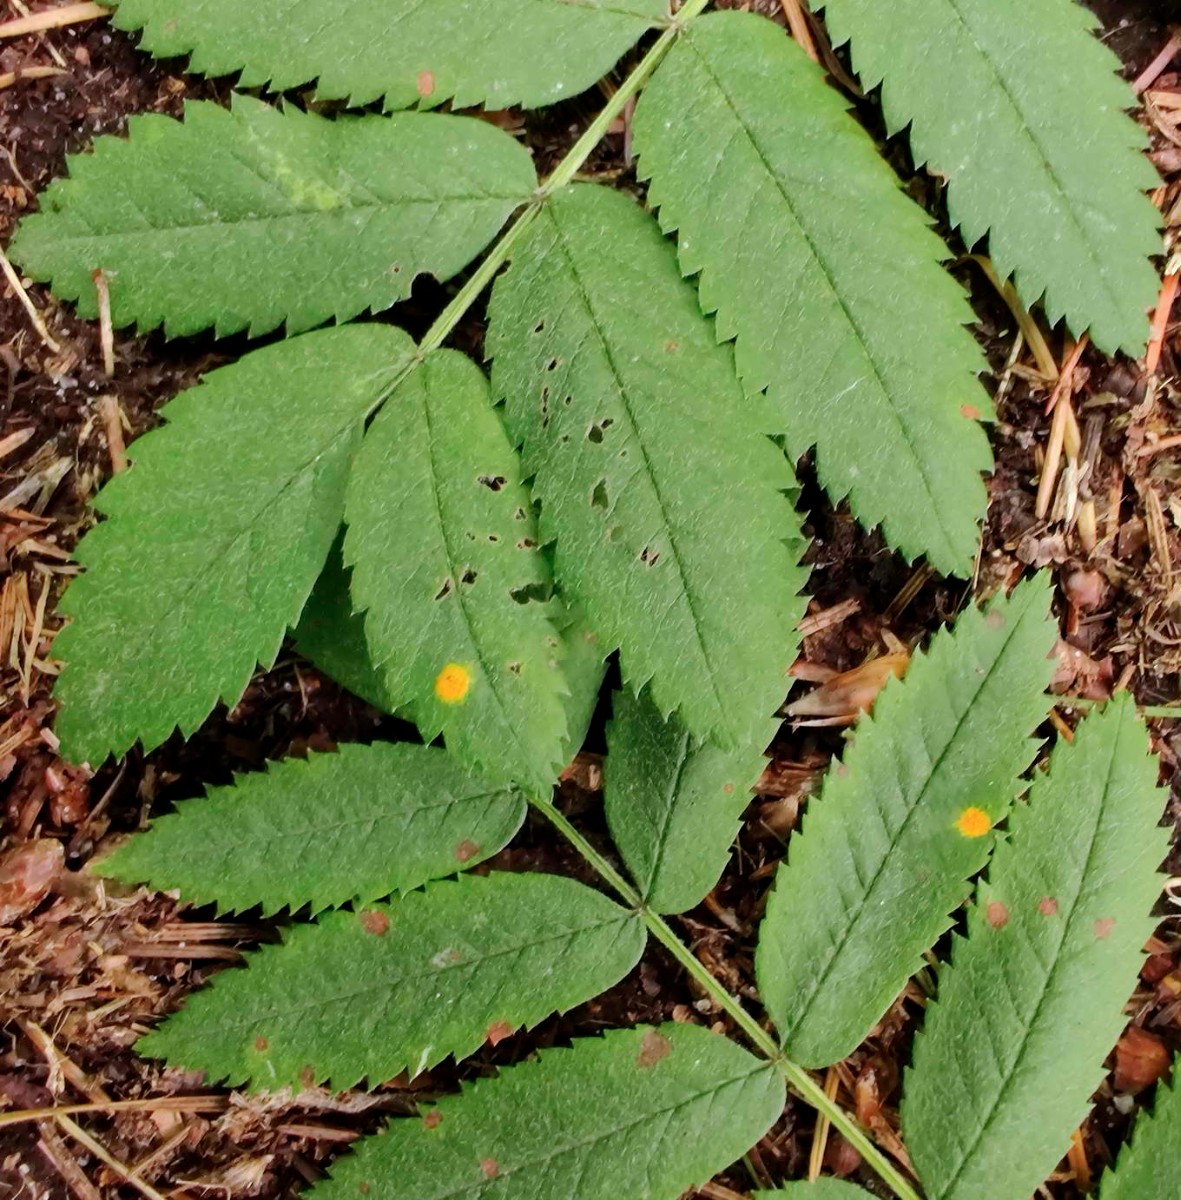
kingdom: Fungi
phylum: Basidiomycota
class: Pucciniomycetes
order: Pucciniales
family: Gymnosporangiaceae
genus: Gymnosporangium
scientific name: Gymnosporangium cornutum
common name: rønnehorn-bævrerust
